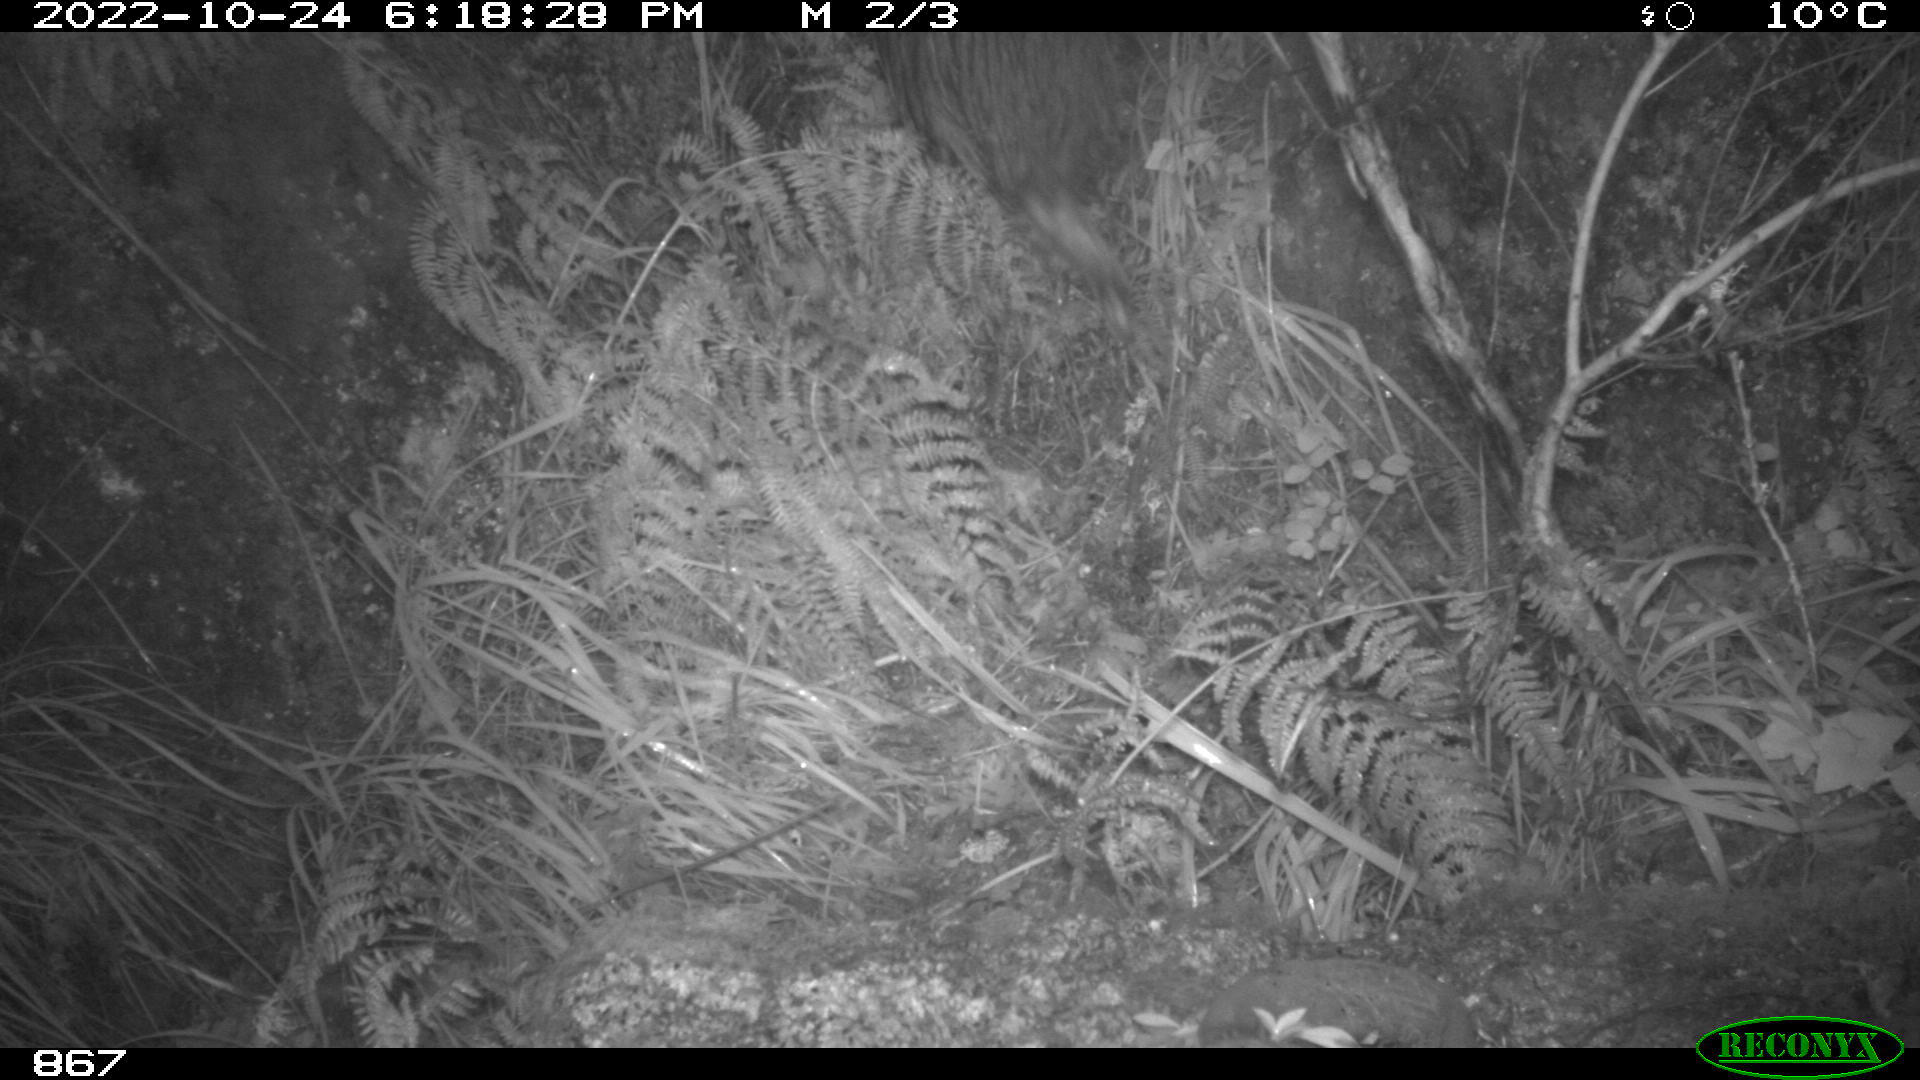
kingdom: Animalia
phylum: Chordata
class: Mammalia
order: Artiodactyla
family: Suidae
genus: Sus
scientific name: Sus scrofa
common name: Wild boar
